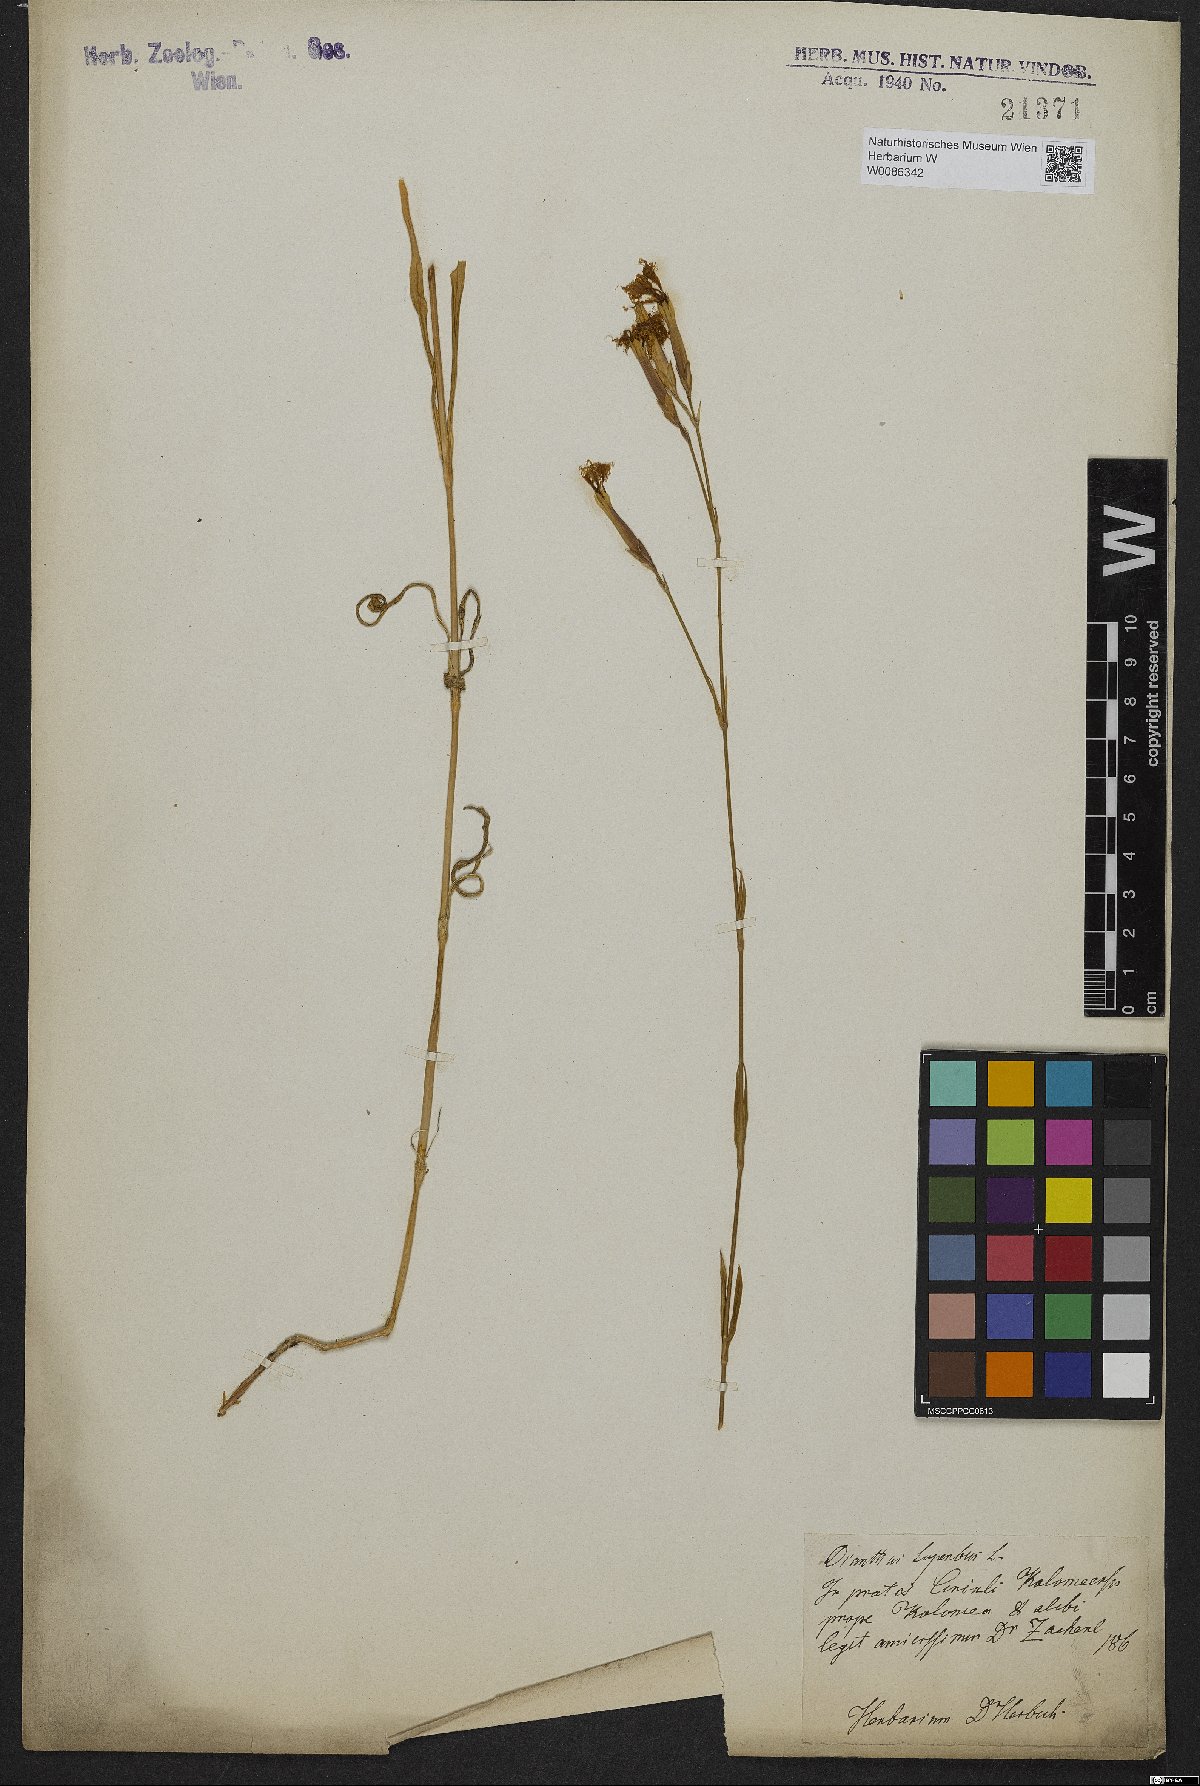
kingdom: Plantae
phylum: Tracheophyta
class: Magnoliopsida
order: Caryophyllales
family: Caryophyllaceae
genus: Dianthus
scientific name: Dianthus superbus
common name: Fringed pink
